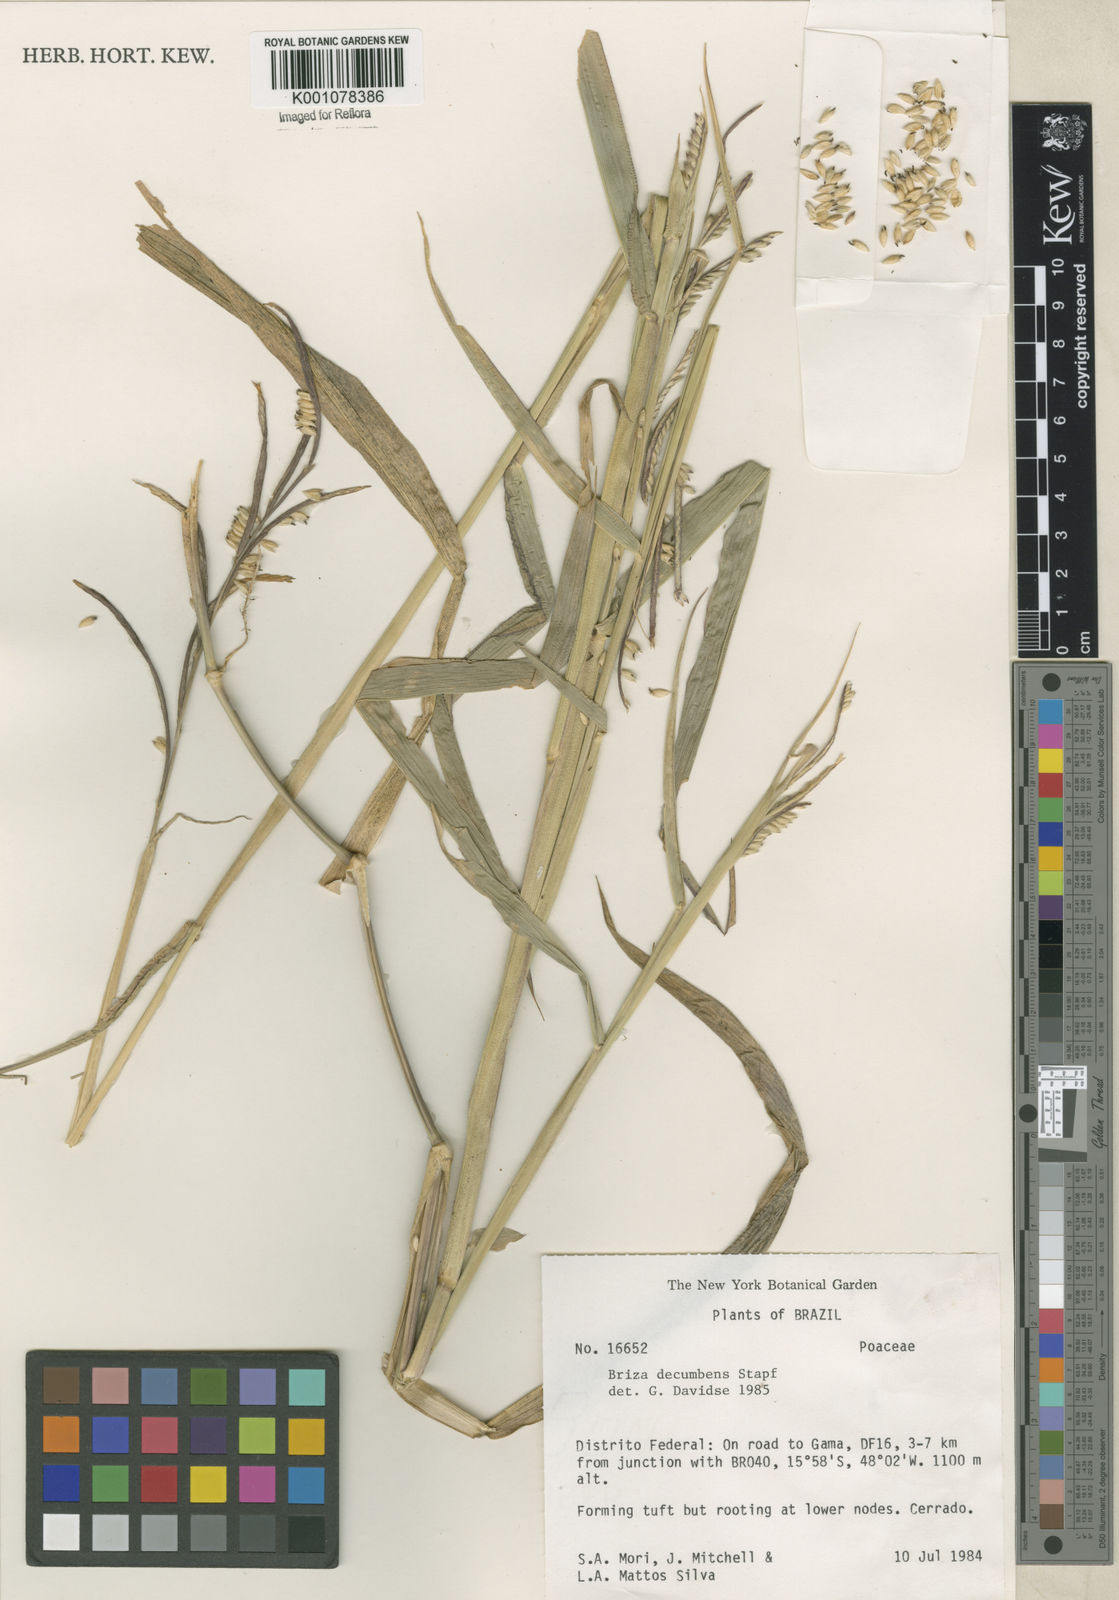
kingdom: Plantae
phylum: Tracheophyta
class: Liliopsida
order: Poales
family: Poaceae
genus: Urochloa
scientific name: Urochloa eminii
